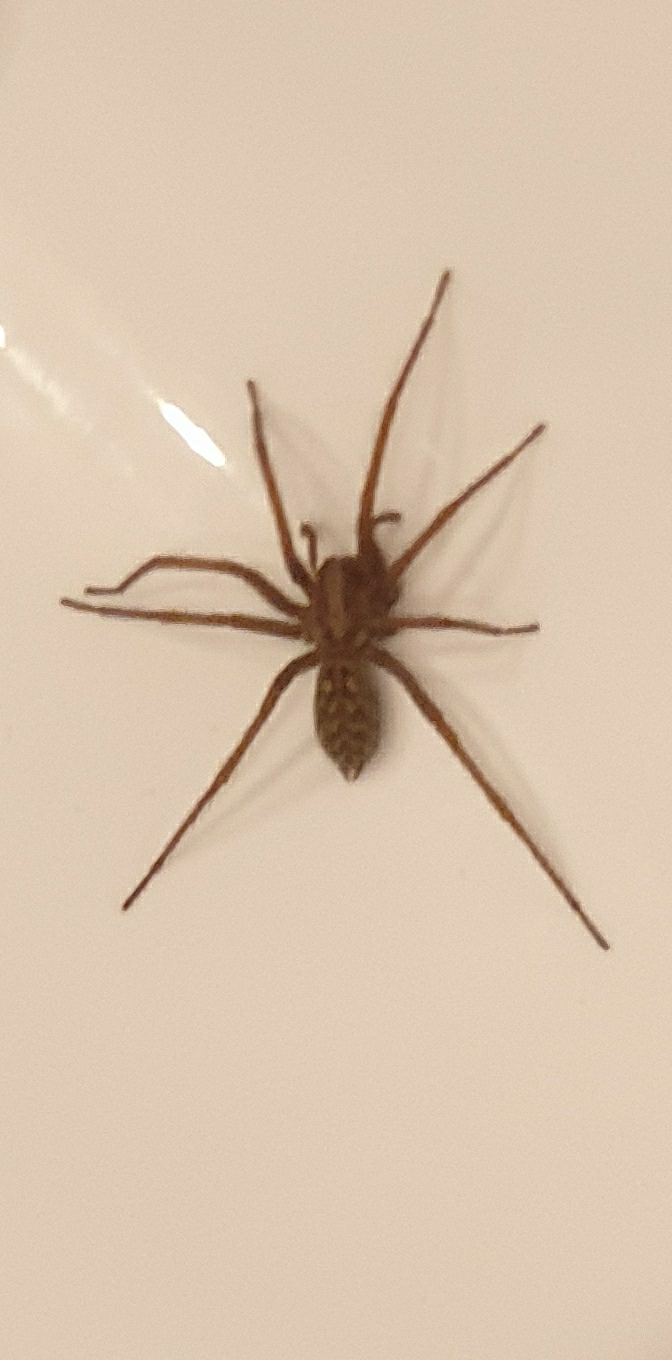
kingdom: Animalia
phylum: Arthropoda
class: Arachnida
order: Araneae
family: Agelenidae
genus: Eratigena
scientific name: Eratigena atrica
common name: Stor husedderkop
